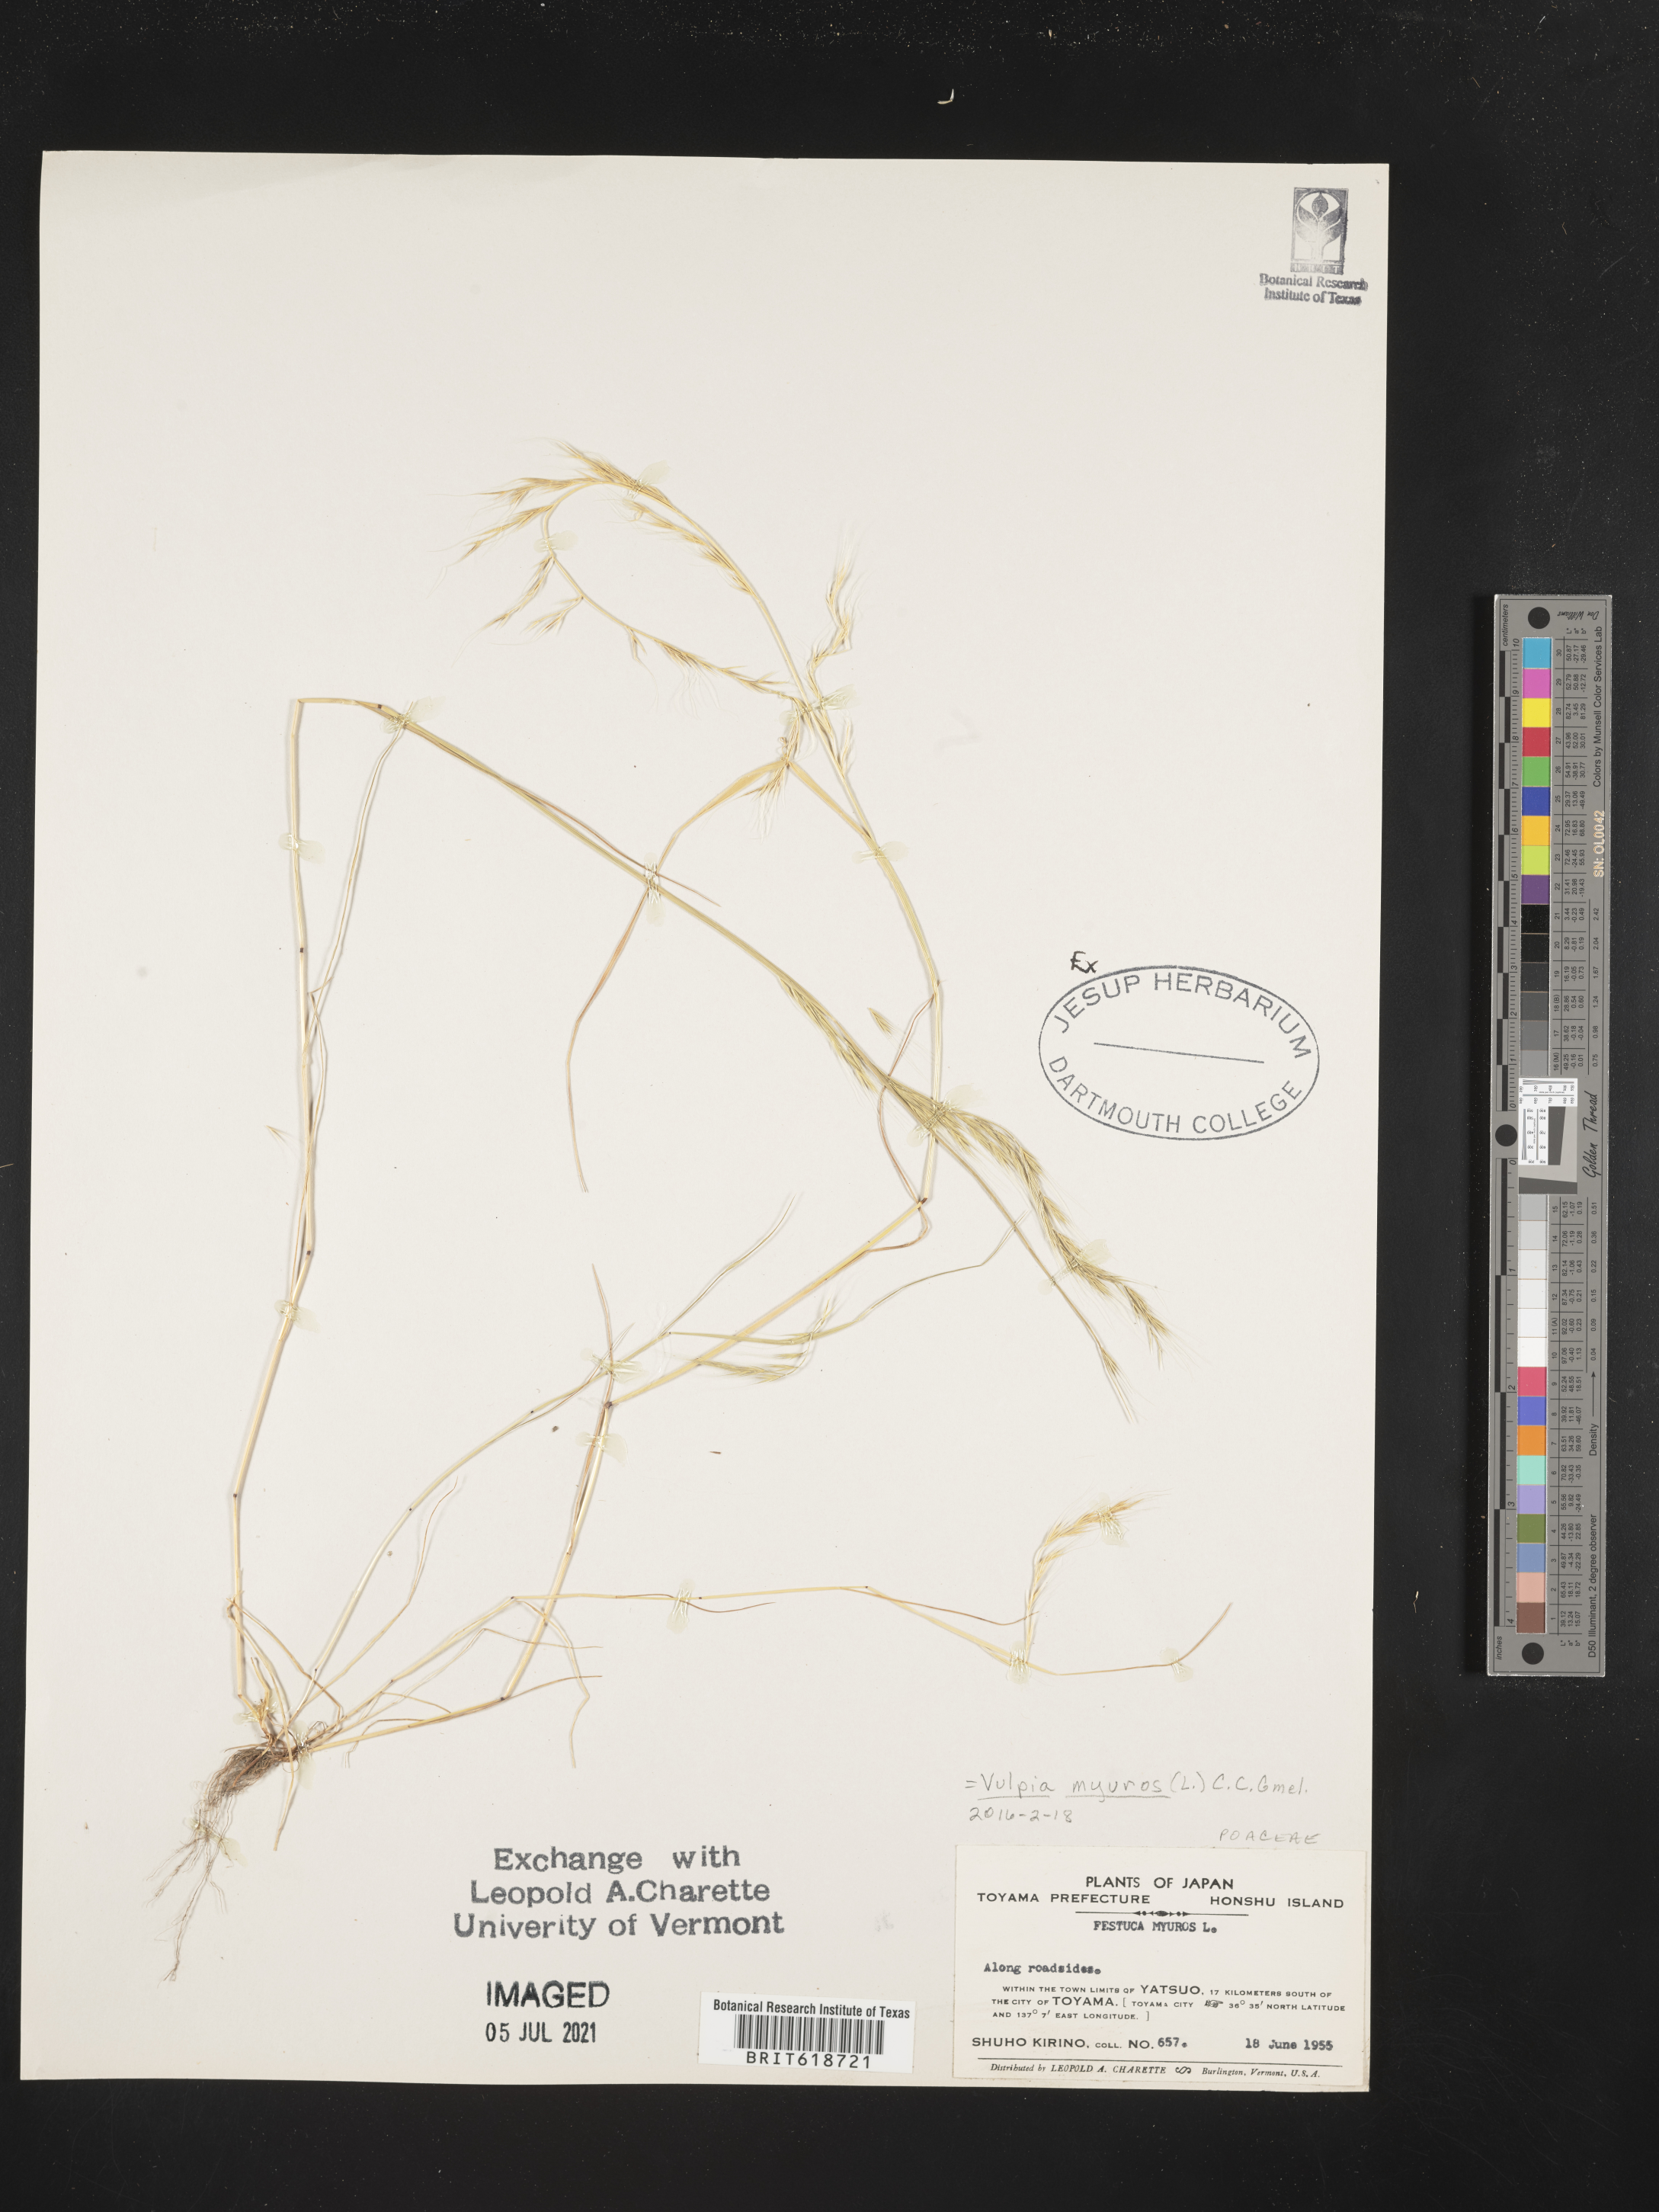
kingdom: Plantae
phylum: Tracheophyta
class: Liliopsida
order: Poales
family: Poaceae
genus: Festuca
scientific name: Festuca myuros
